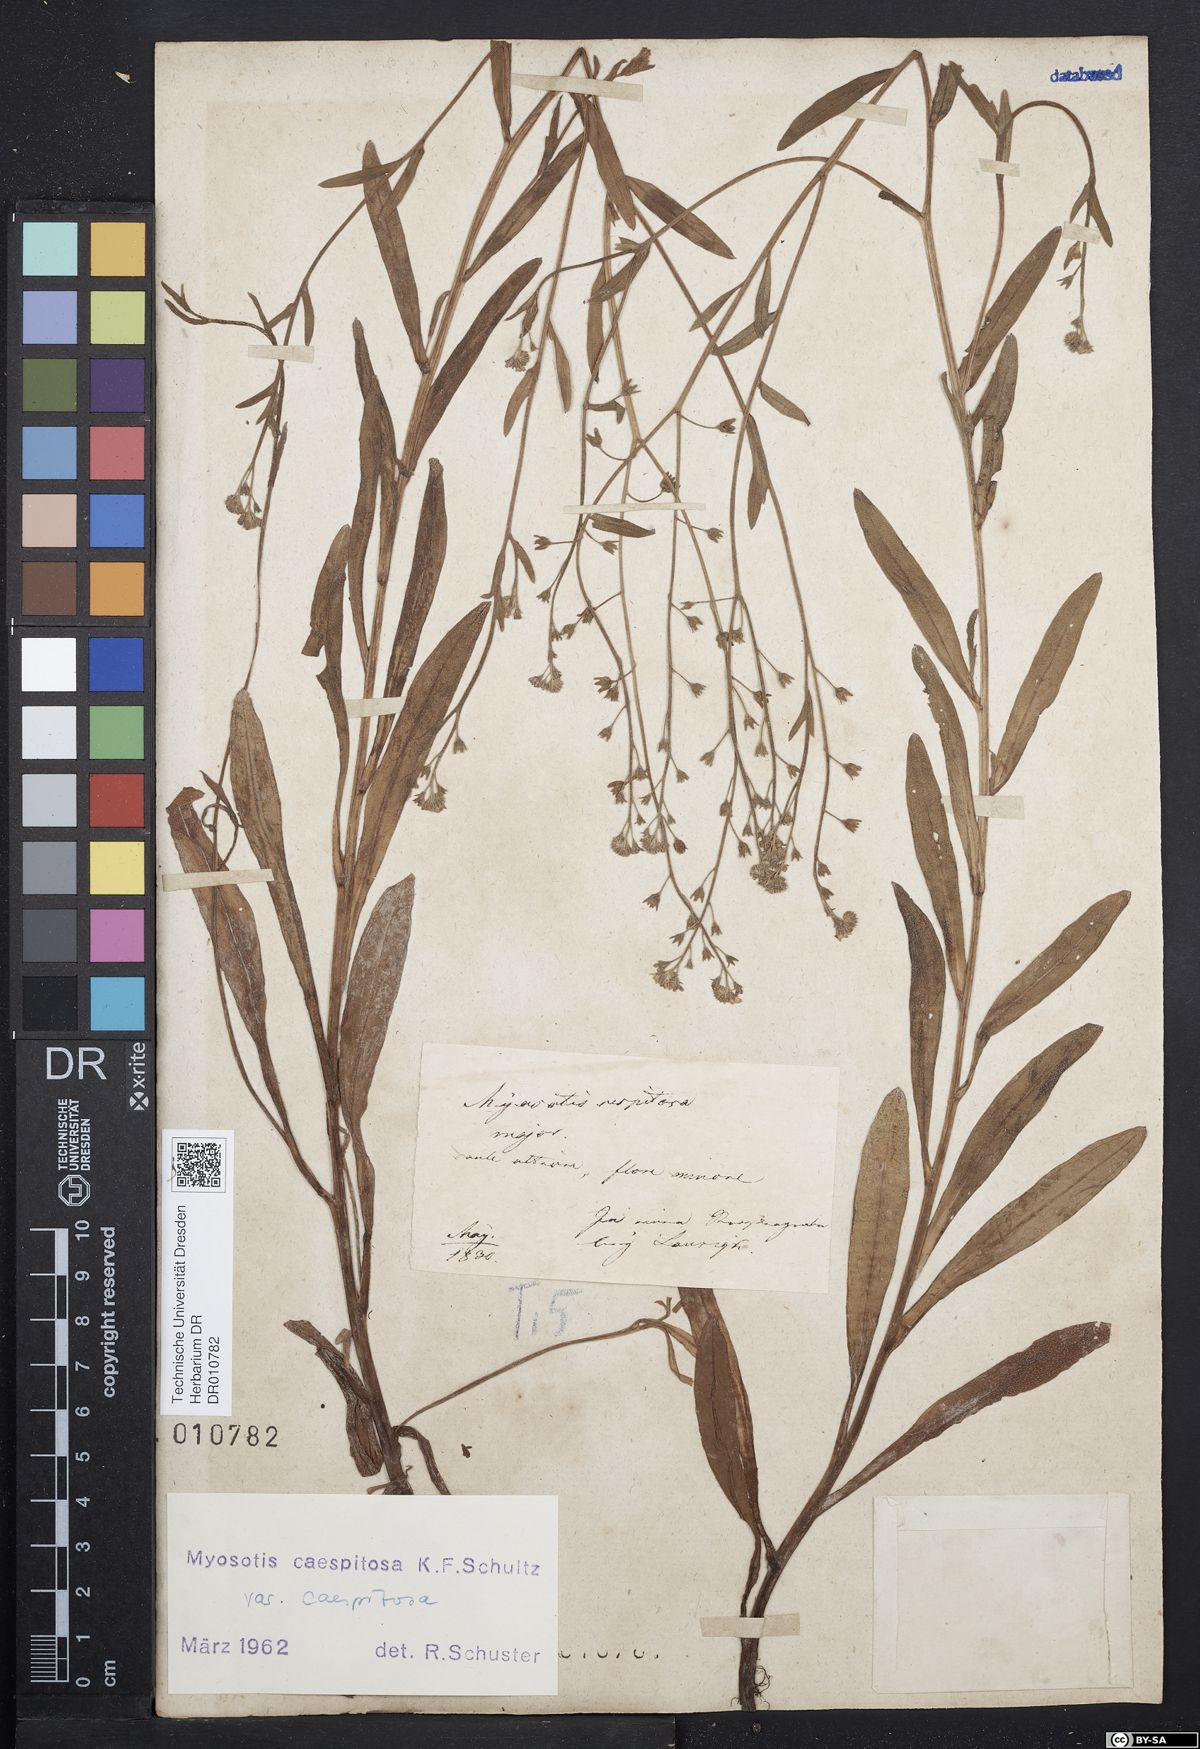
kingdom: Plantae
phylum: Tracheophyta
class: Magnoliopsida
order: Boraginales
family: Boraginaceae
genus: Myosotis
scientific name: Myosotis laxa
